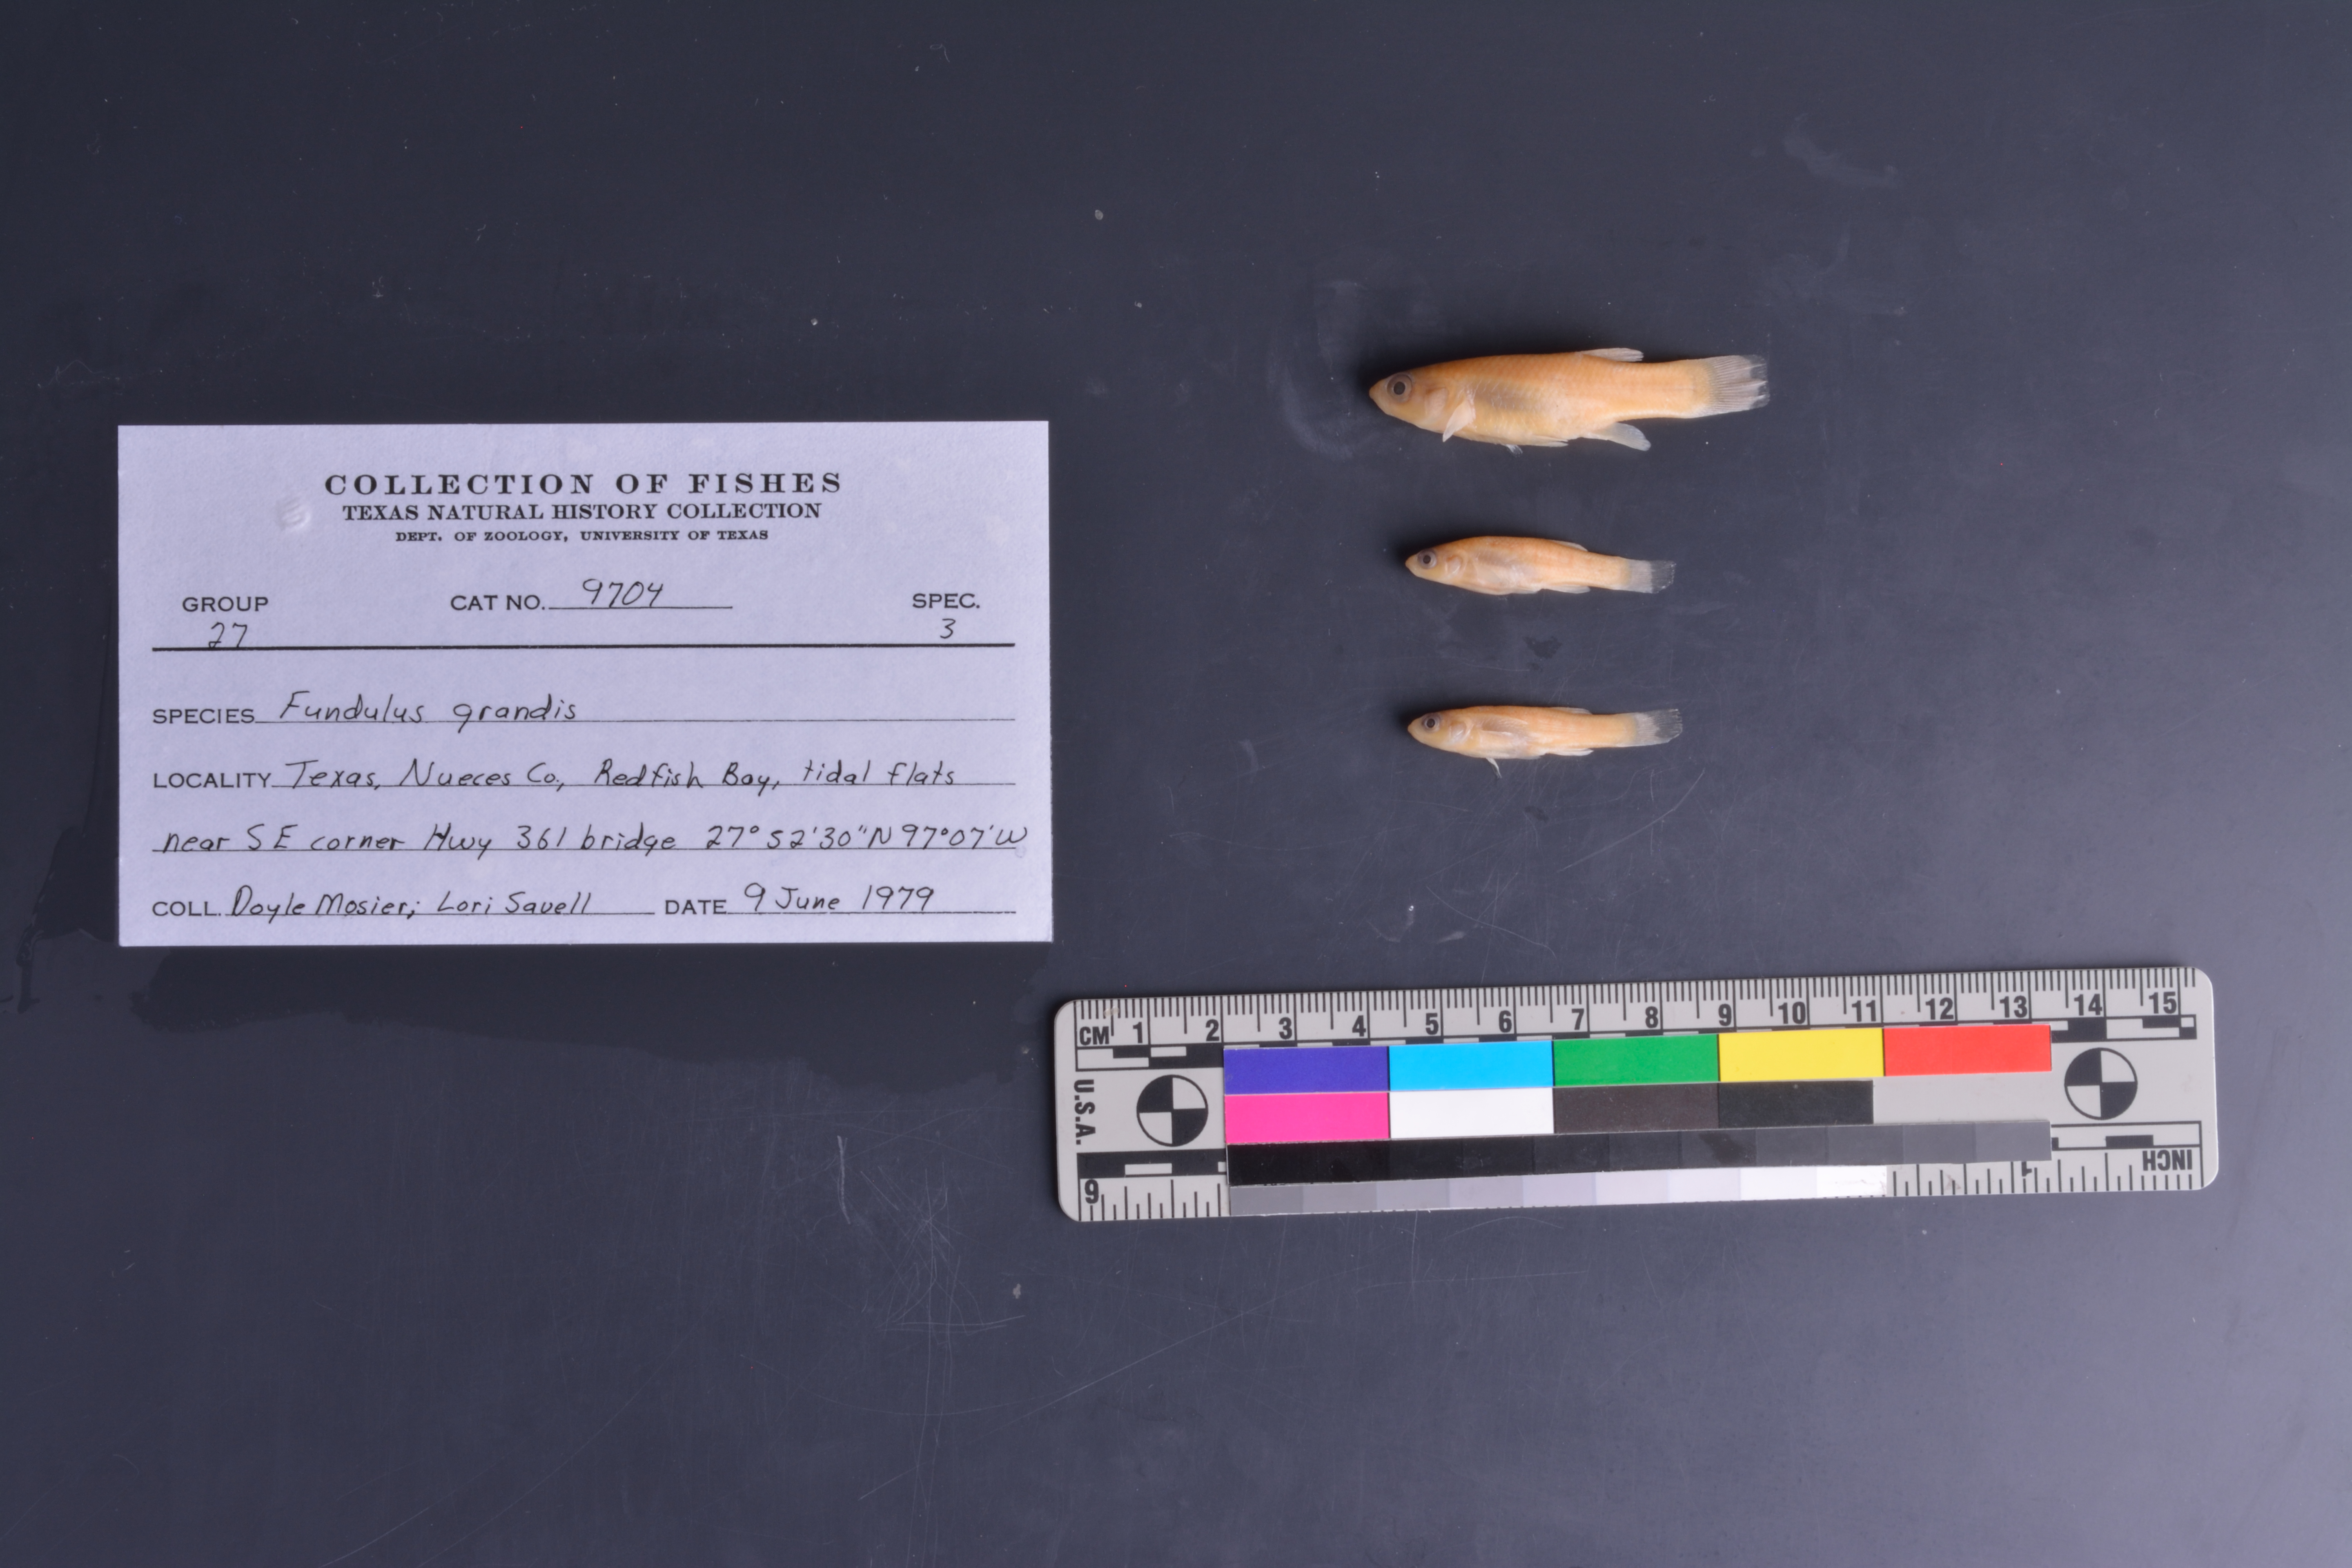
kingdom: Animalia
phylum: Chordata
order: Cyprinodontiformes
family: Fundulidae
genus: Fundulus
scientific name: Fundulus grandis
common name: Gulf killifish
